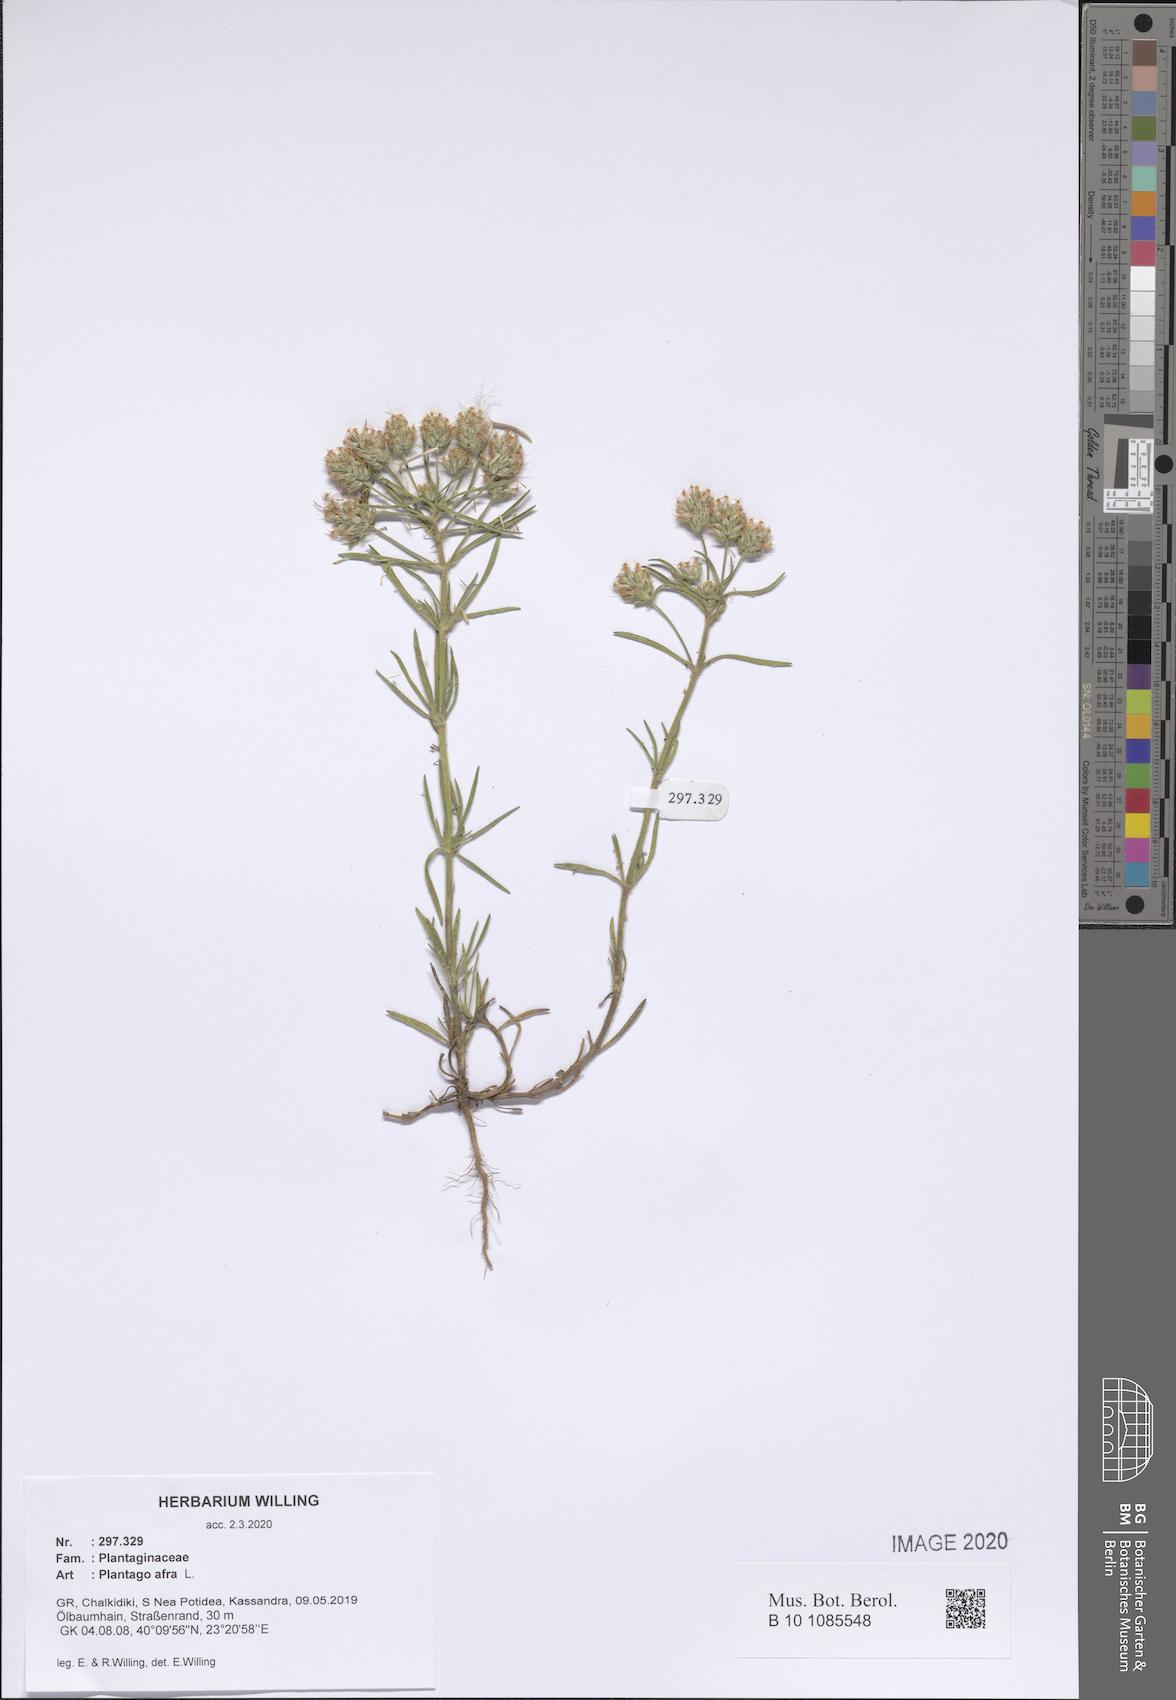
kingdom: Plantae
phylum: Tracheophyta
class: Magnoliopsida
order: Lamiales
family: Plantaginaceae
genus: Plantago
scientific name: Plantago afra
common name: Glandular plantain
